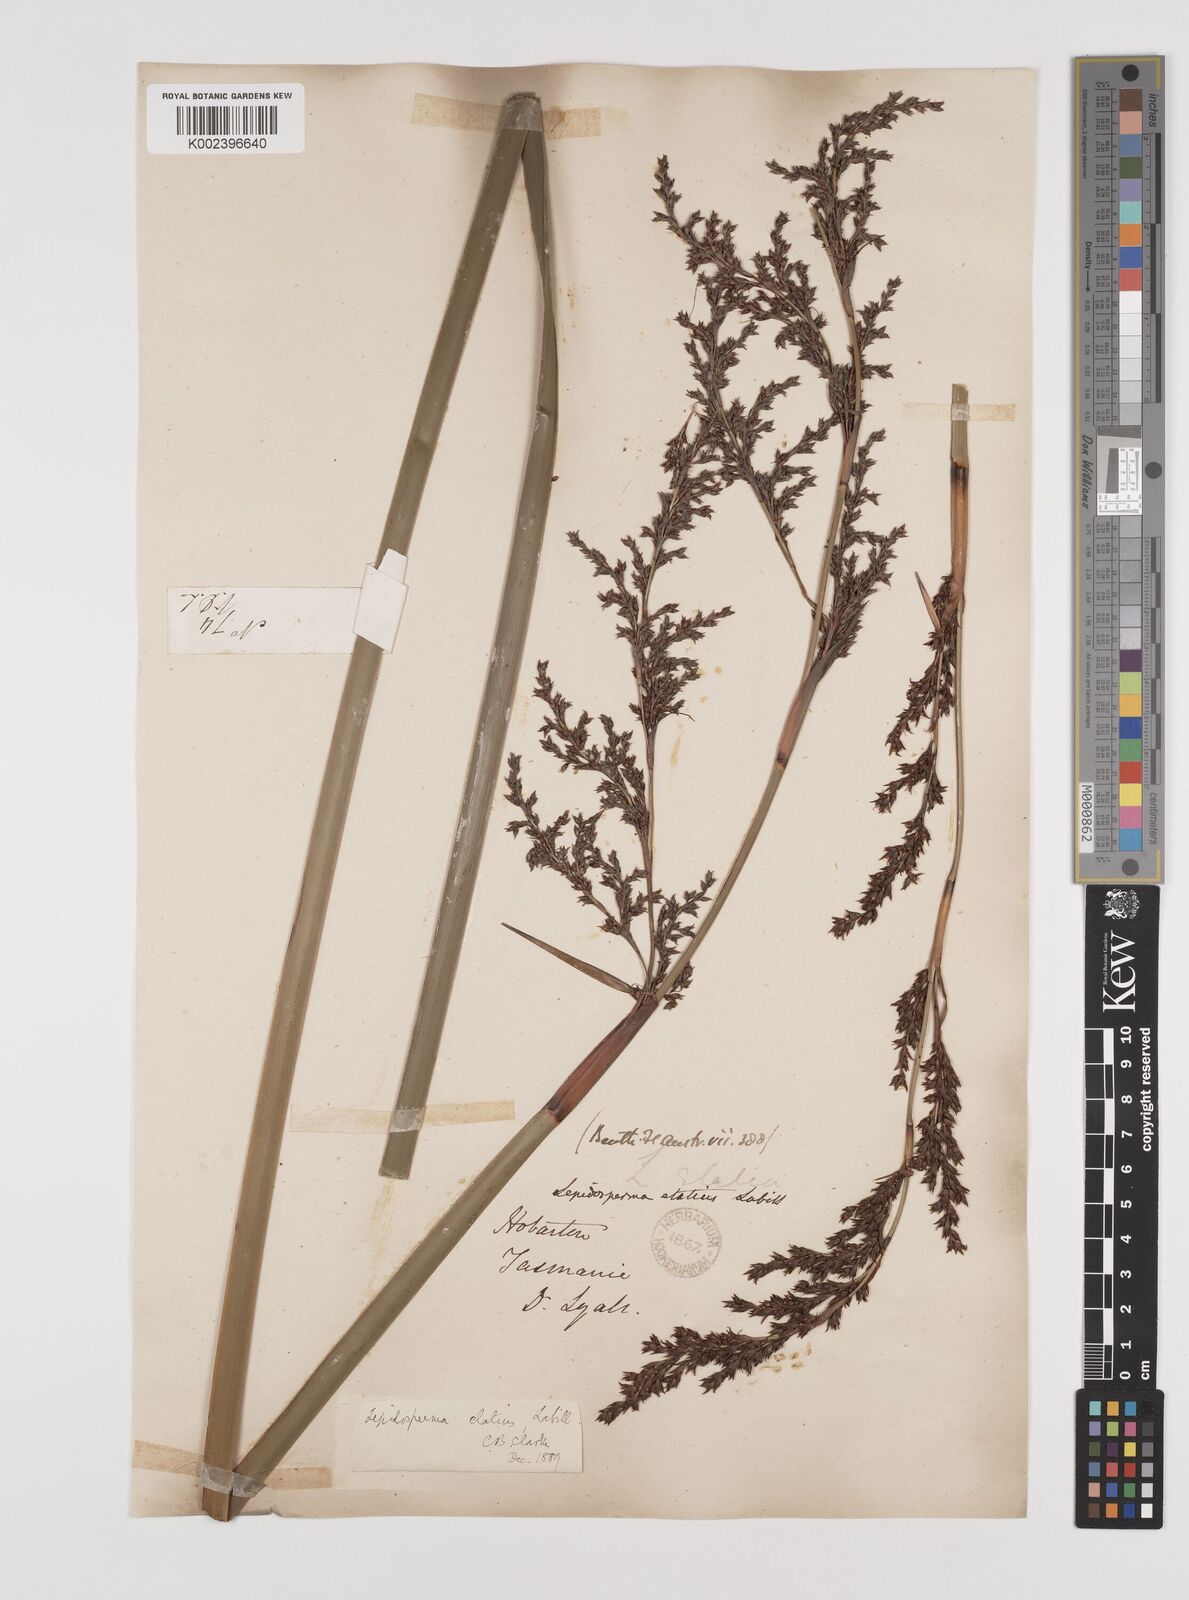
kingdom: Plantae
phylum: Tracheophyta
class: Liliopsida
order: Poales
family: Cyperaceae
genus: Lepidosperma
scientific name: Lepidosperma elatius
